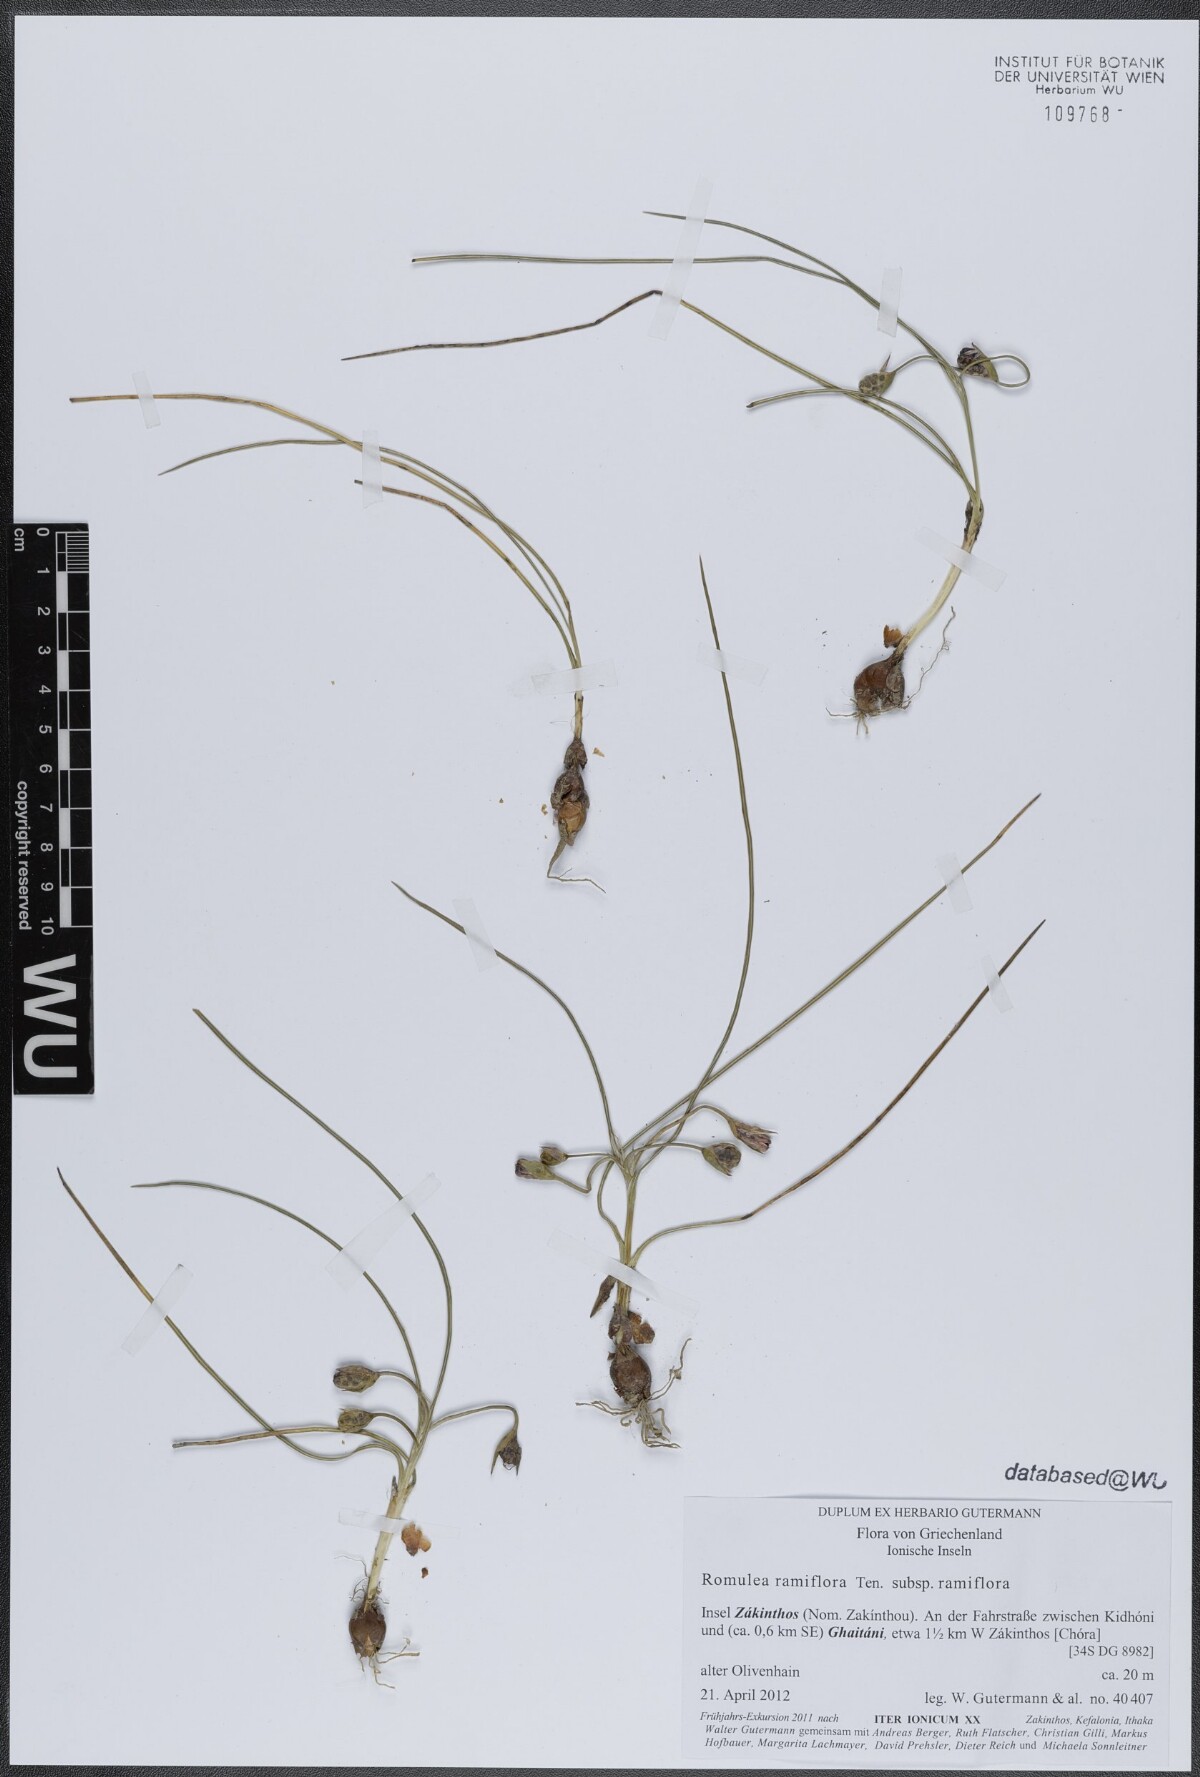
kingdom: Plantae
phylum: Tracheophyta
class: Liliopsida
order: Asparagales
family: Iridaceae
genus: Romulea
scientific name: Romulea ramiflora
